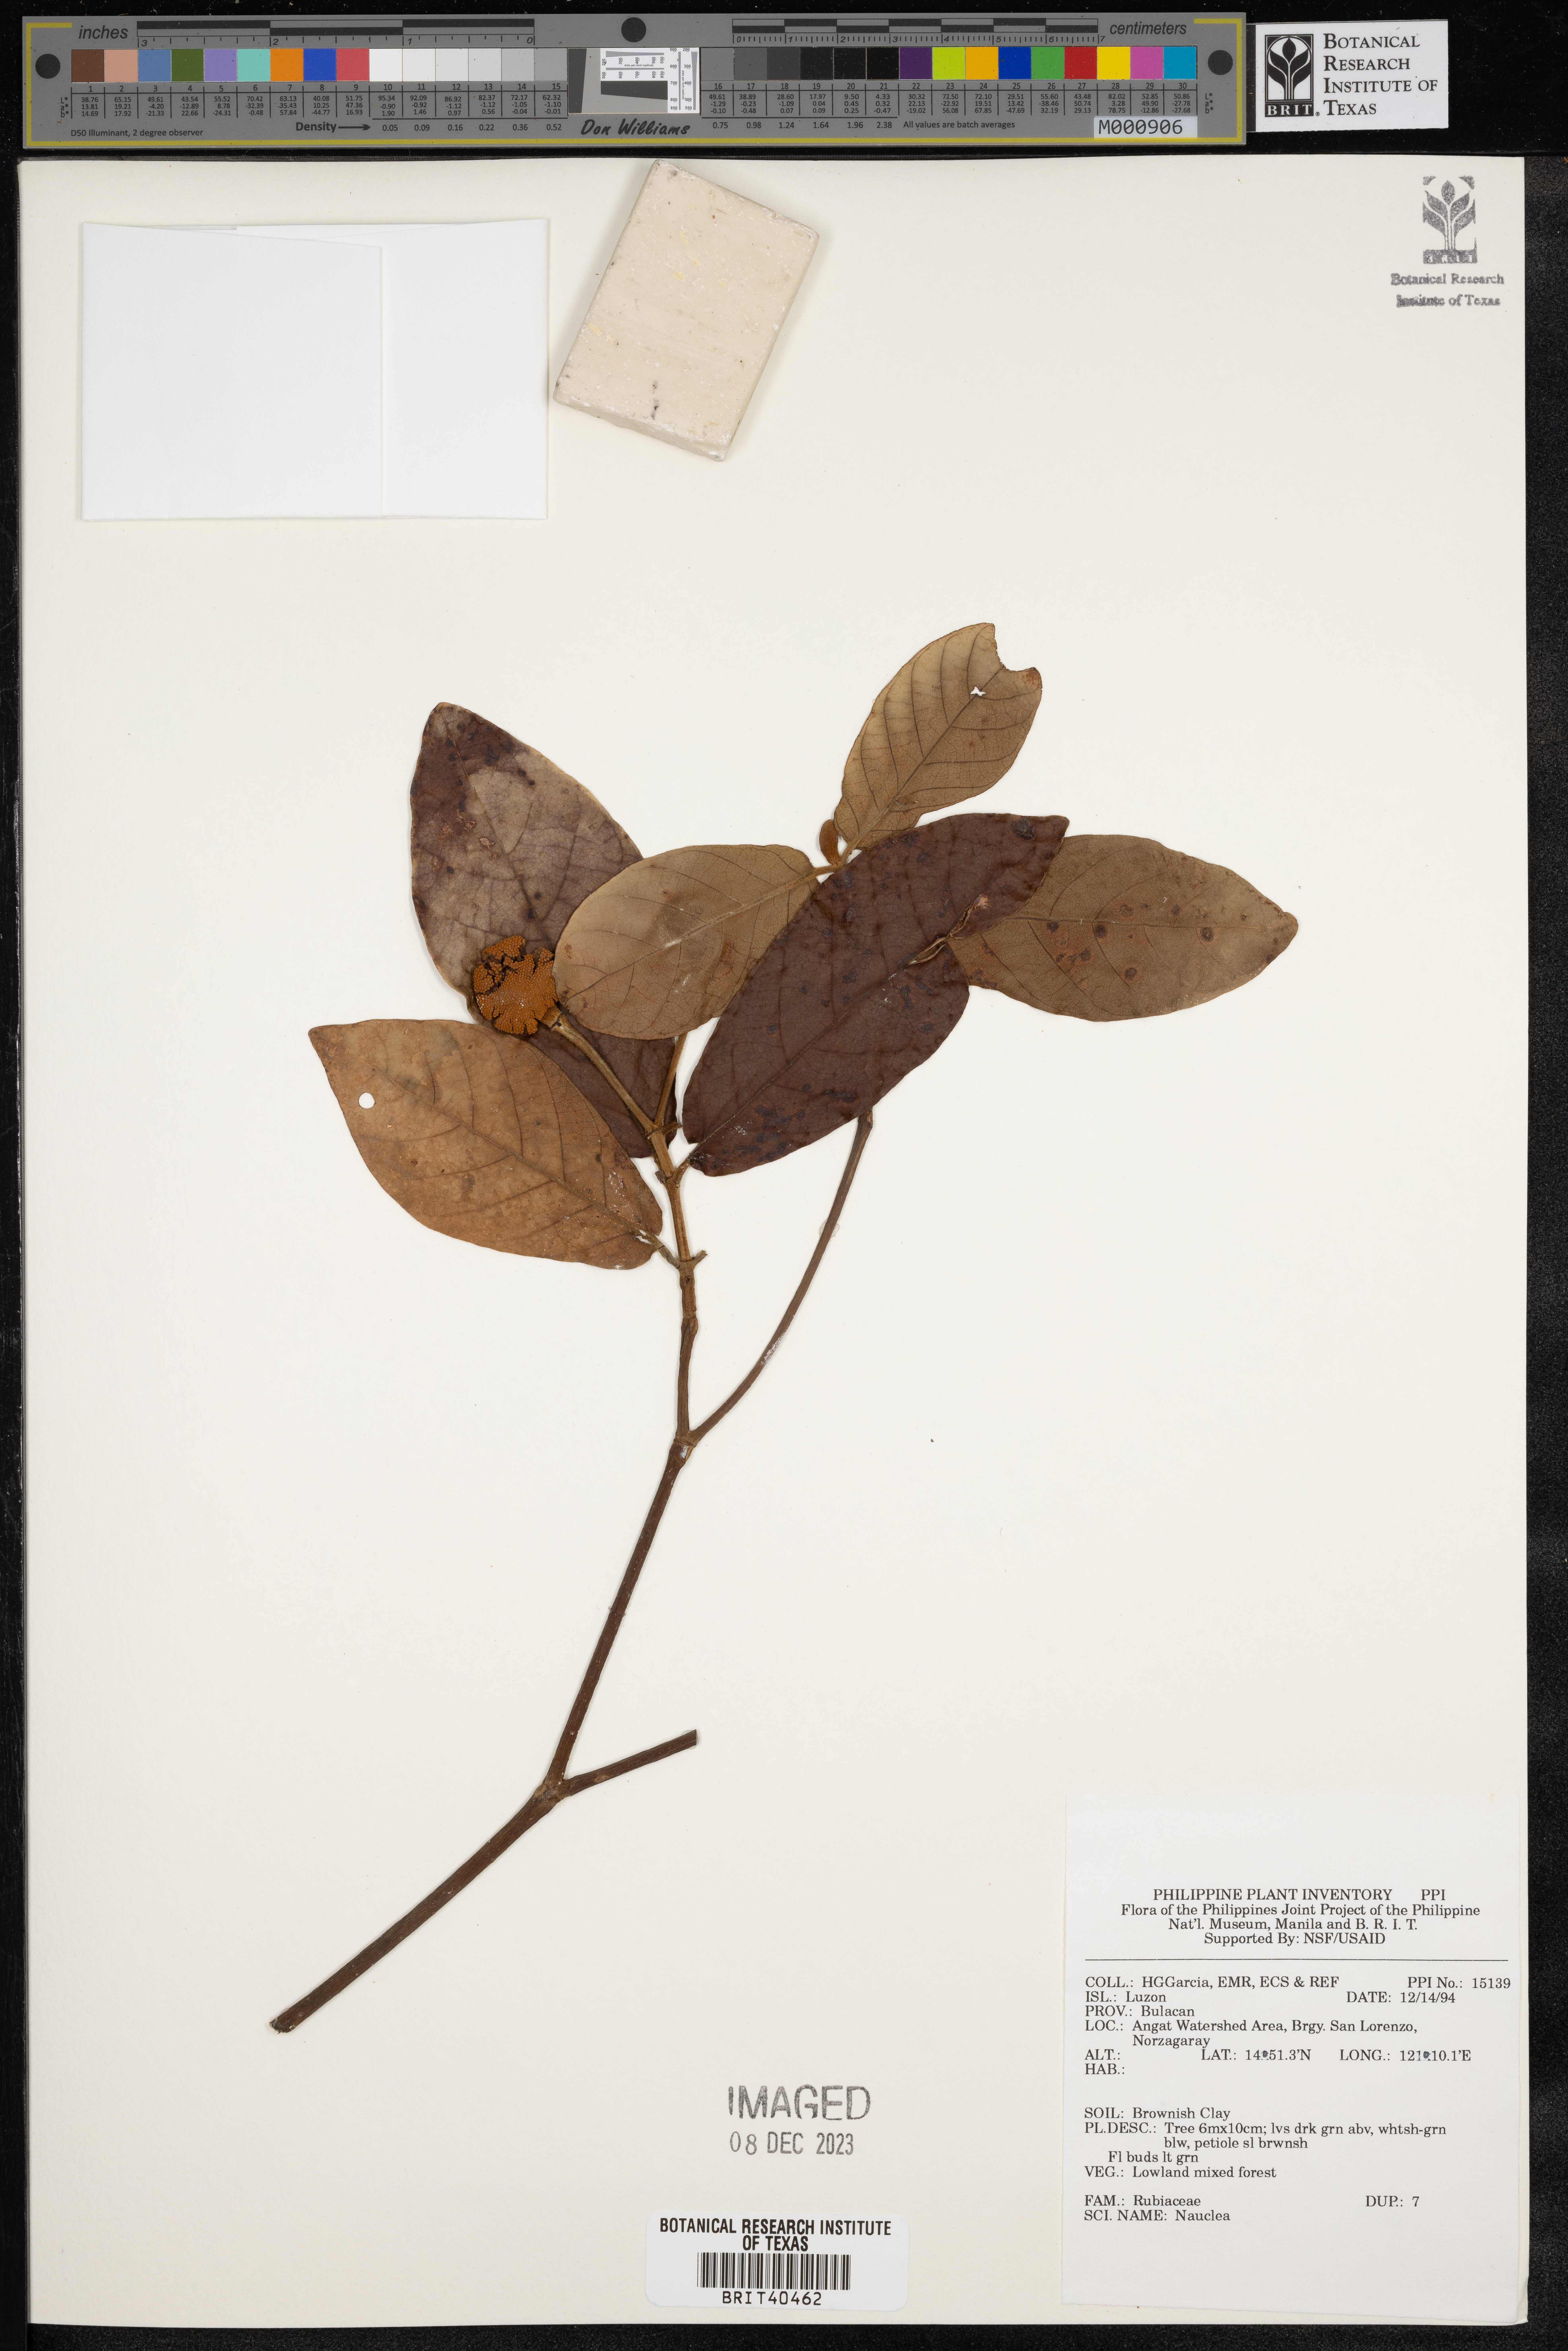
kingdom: Plantae
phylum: Tracheophyta
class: Magnoliopsida
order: Gentianales
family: Rubiaceae
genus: Nauclea
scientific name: Nauclea
